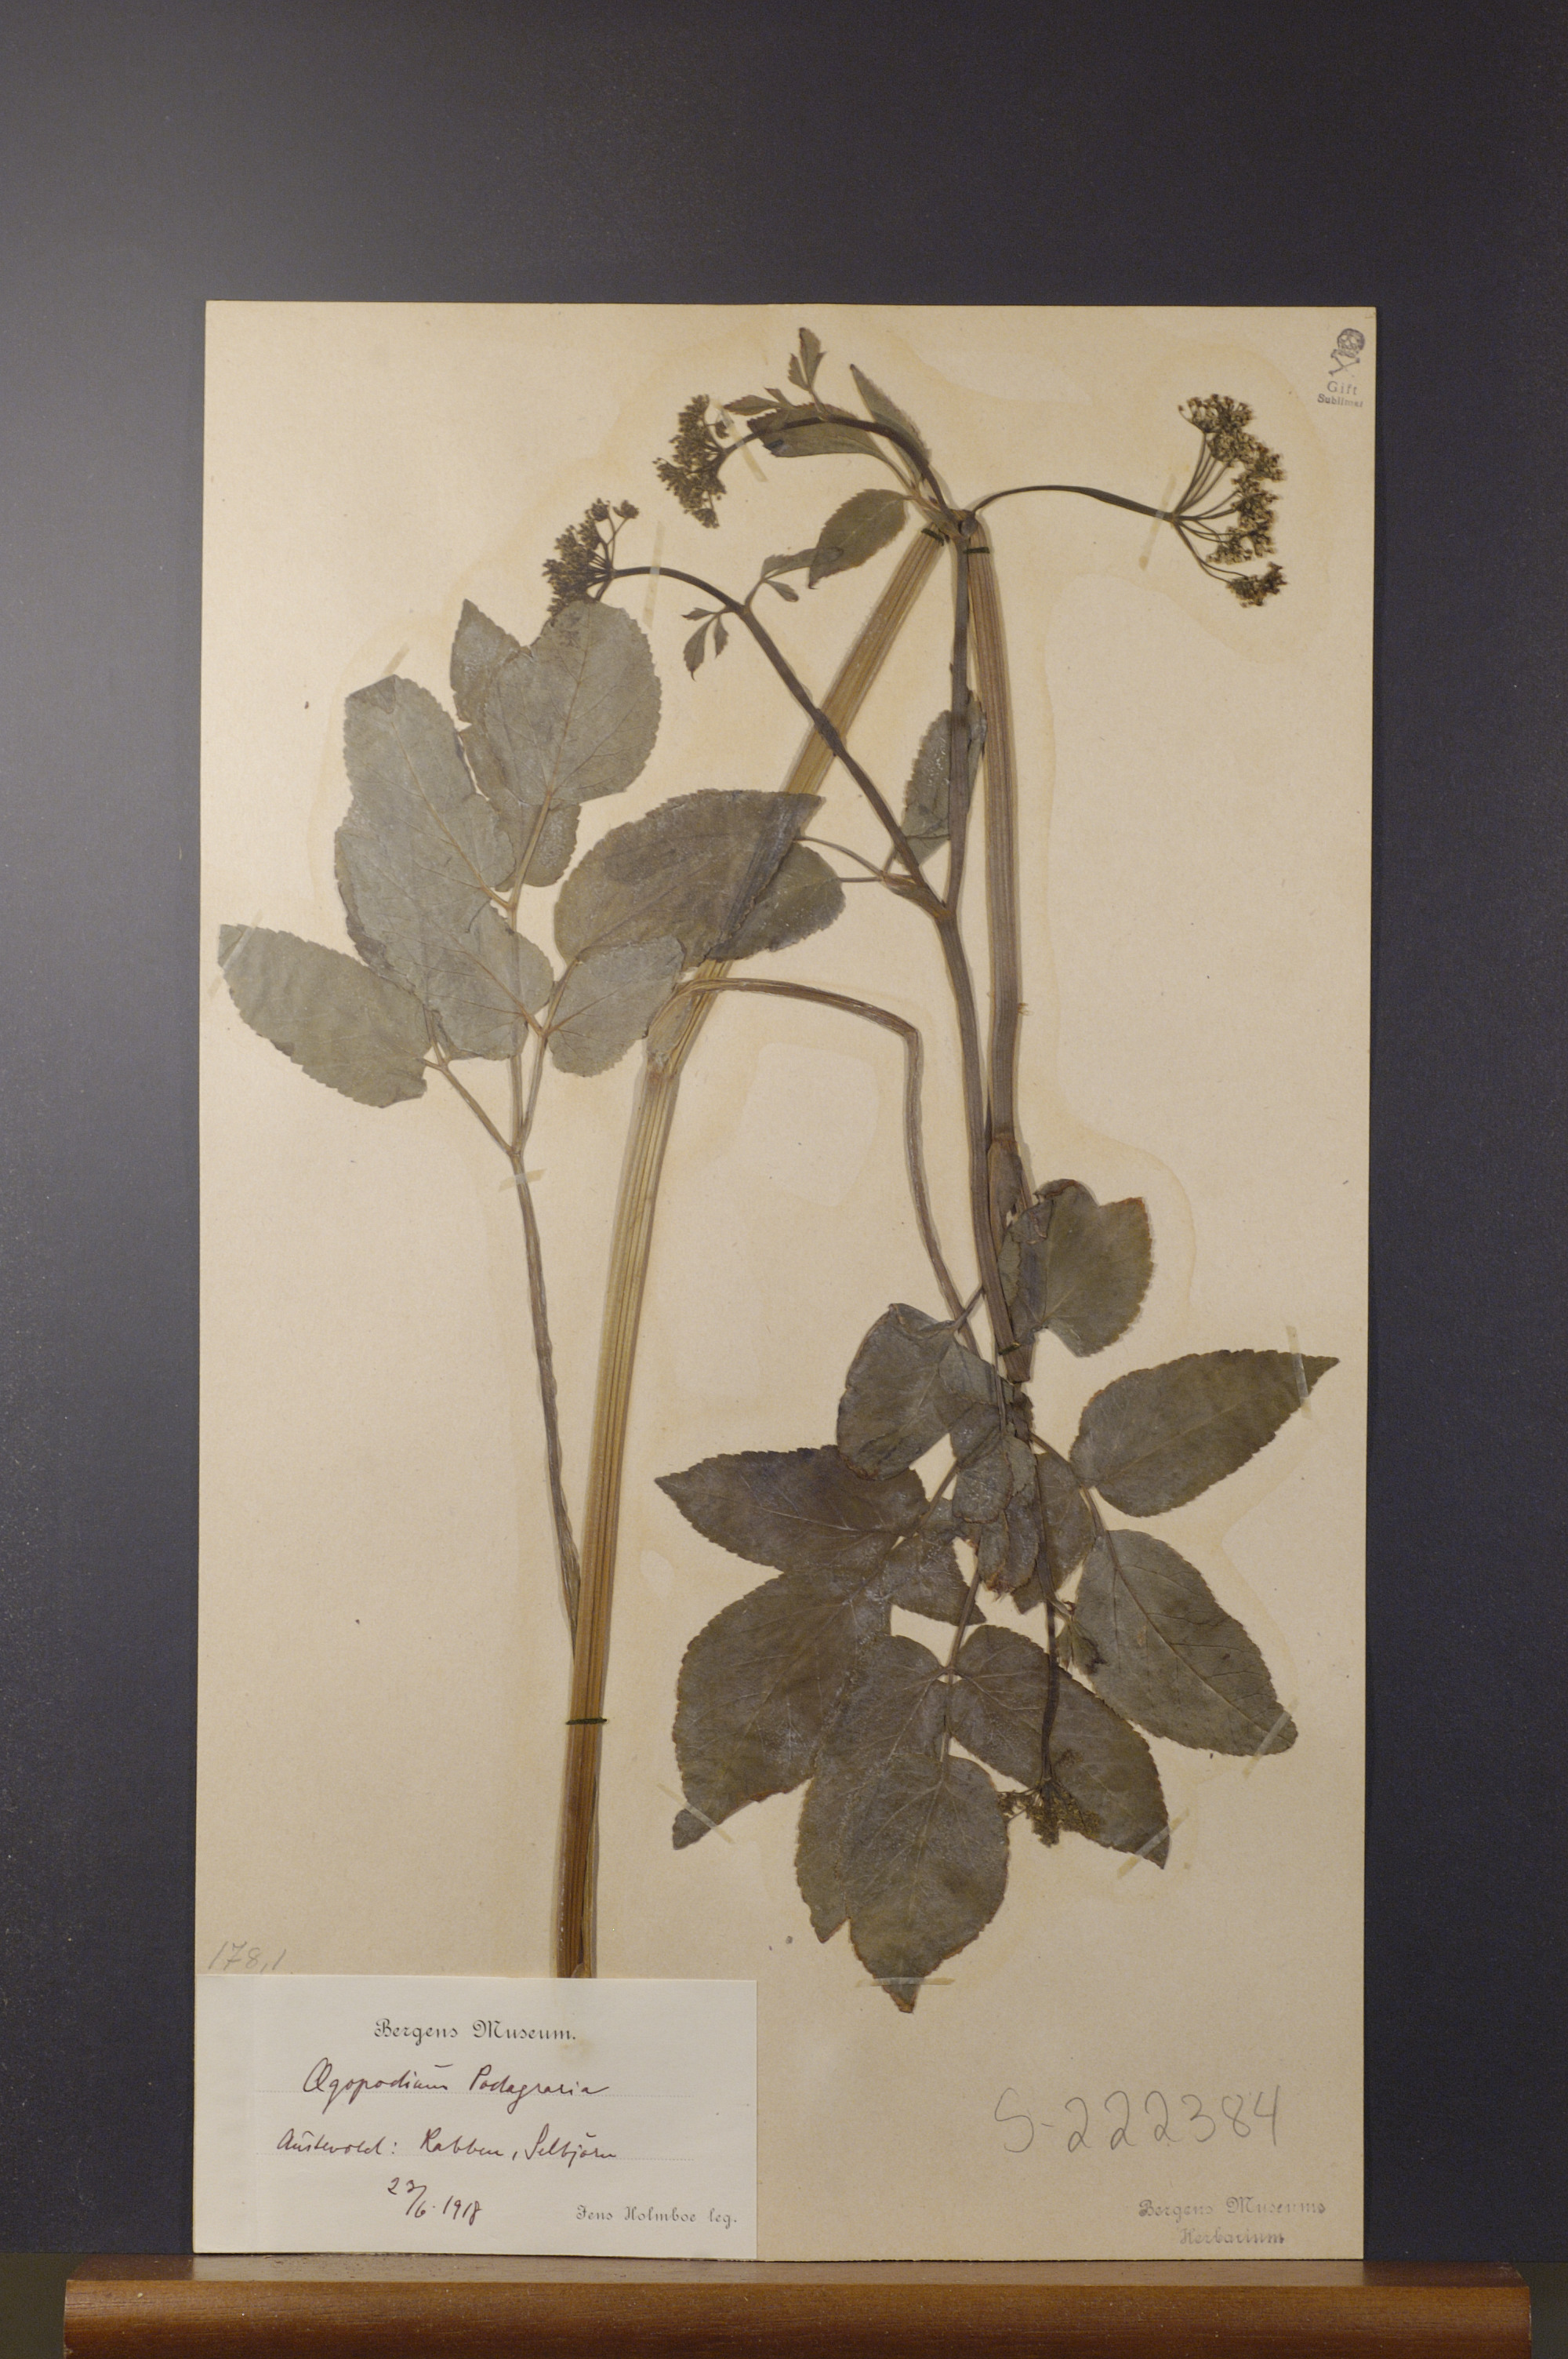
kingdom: Plantae
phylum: Tracheophyta
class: Magnoliopsida
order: Apiales
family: Apiaceae
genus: Aegopodium
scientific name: Aegopodium podagraria
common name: Ground-elder
